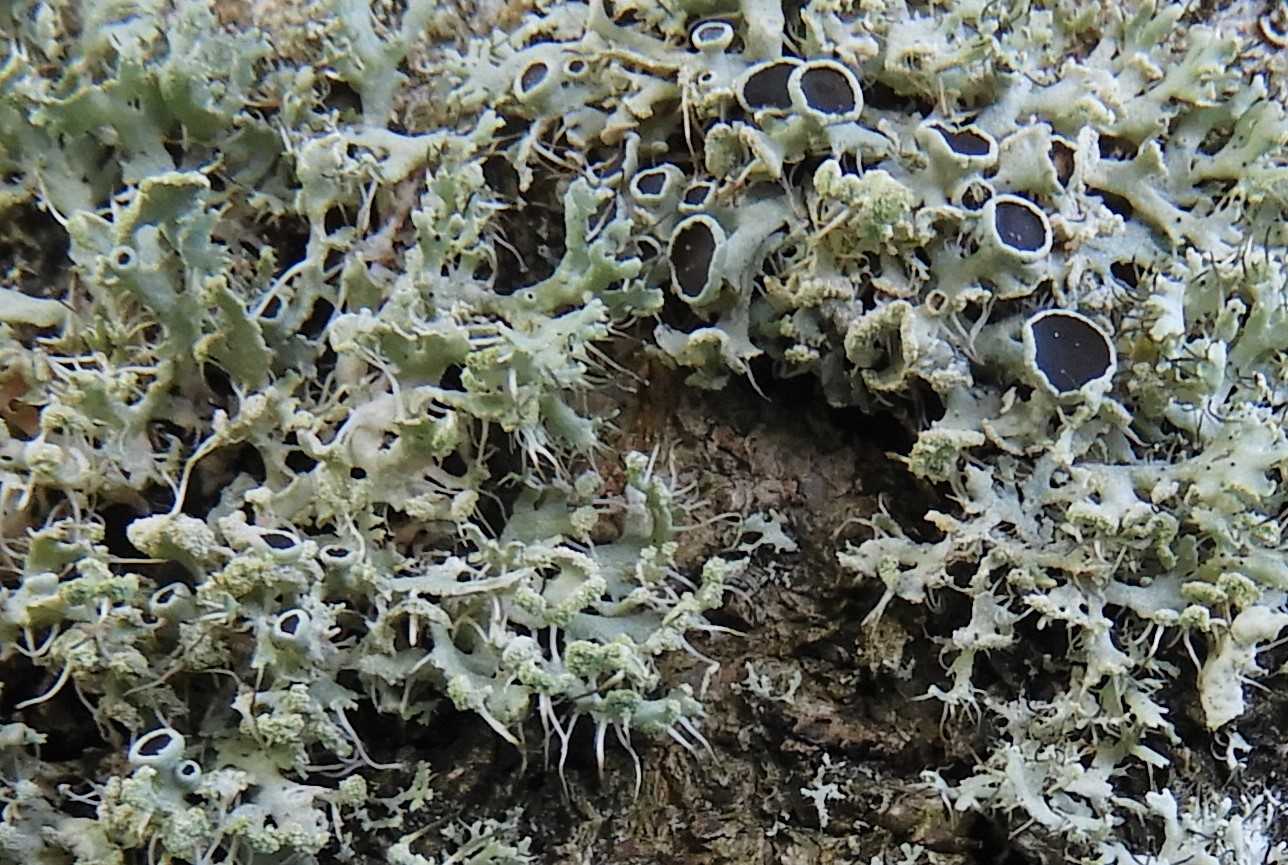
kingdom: Fungi
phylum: Ascomycota
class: Lecanoromycetes
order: Caliciales
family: Physciaceae
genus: Physcia
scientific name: Physcia tenella
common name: spæd rosetlav
